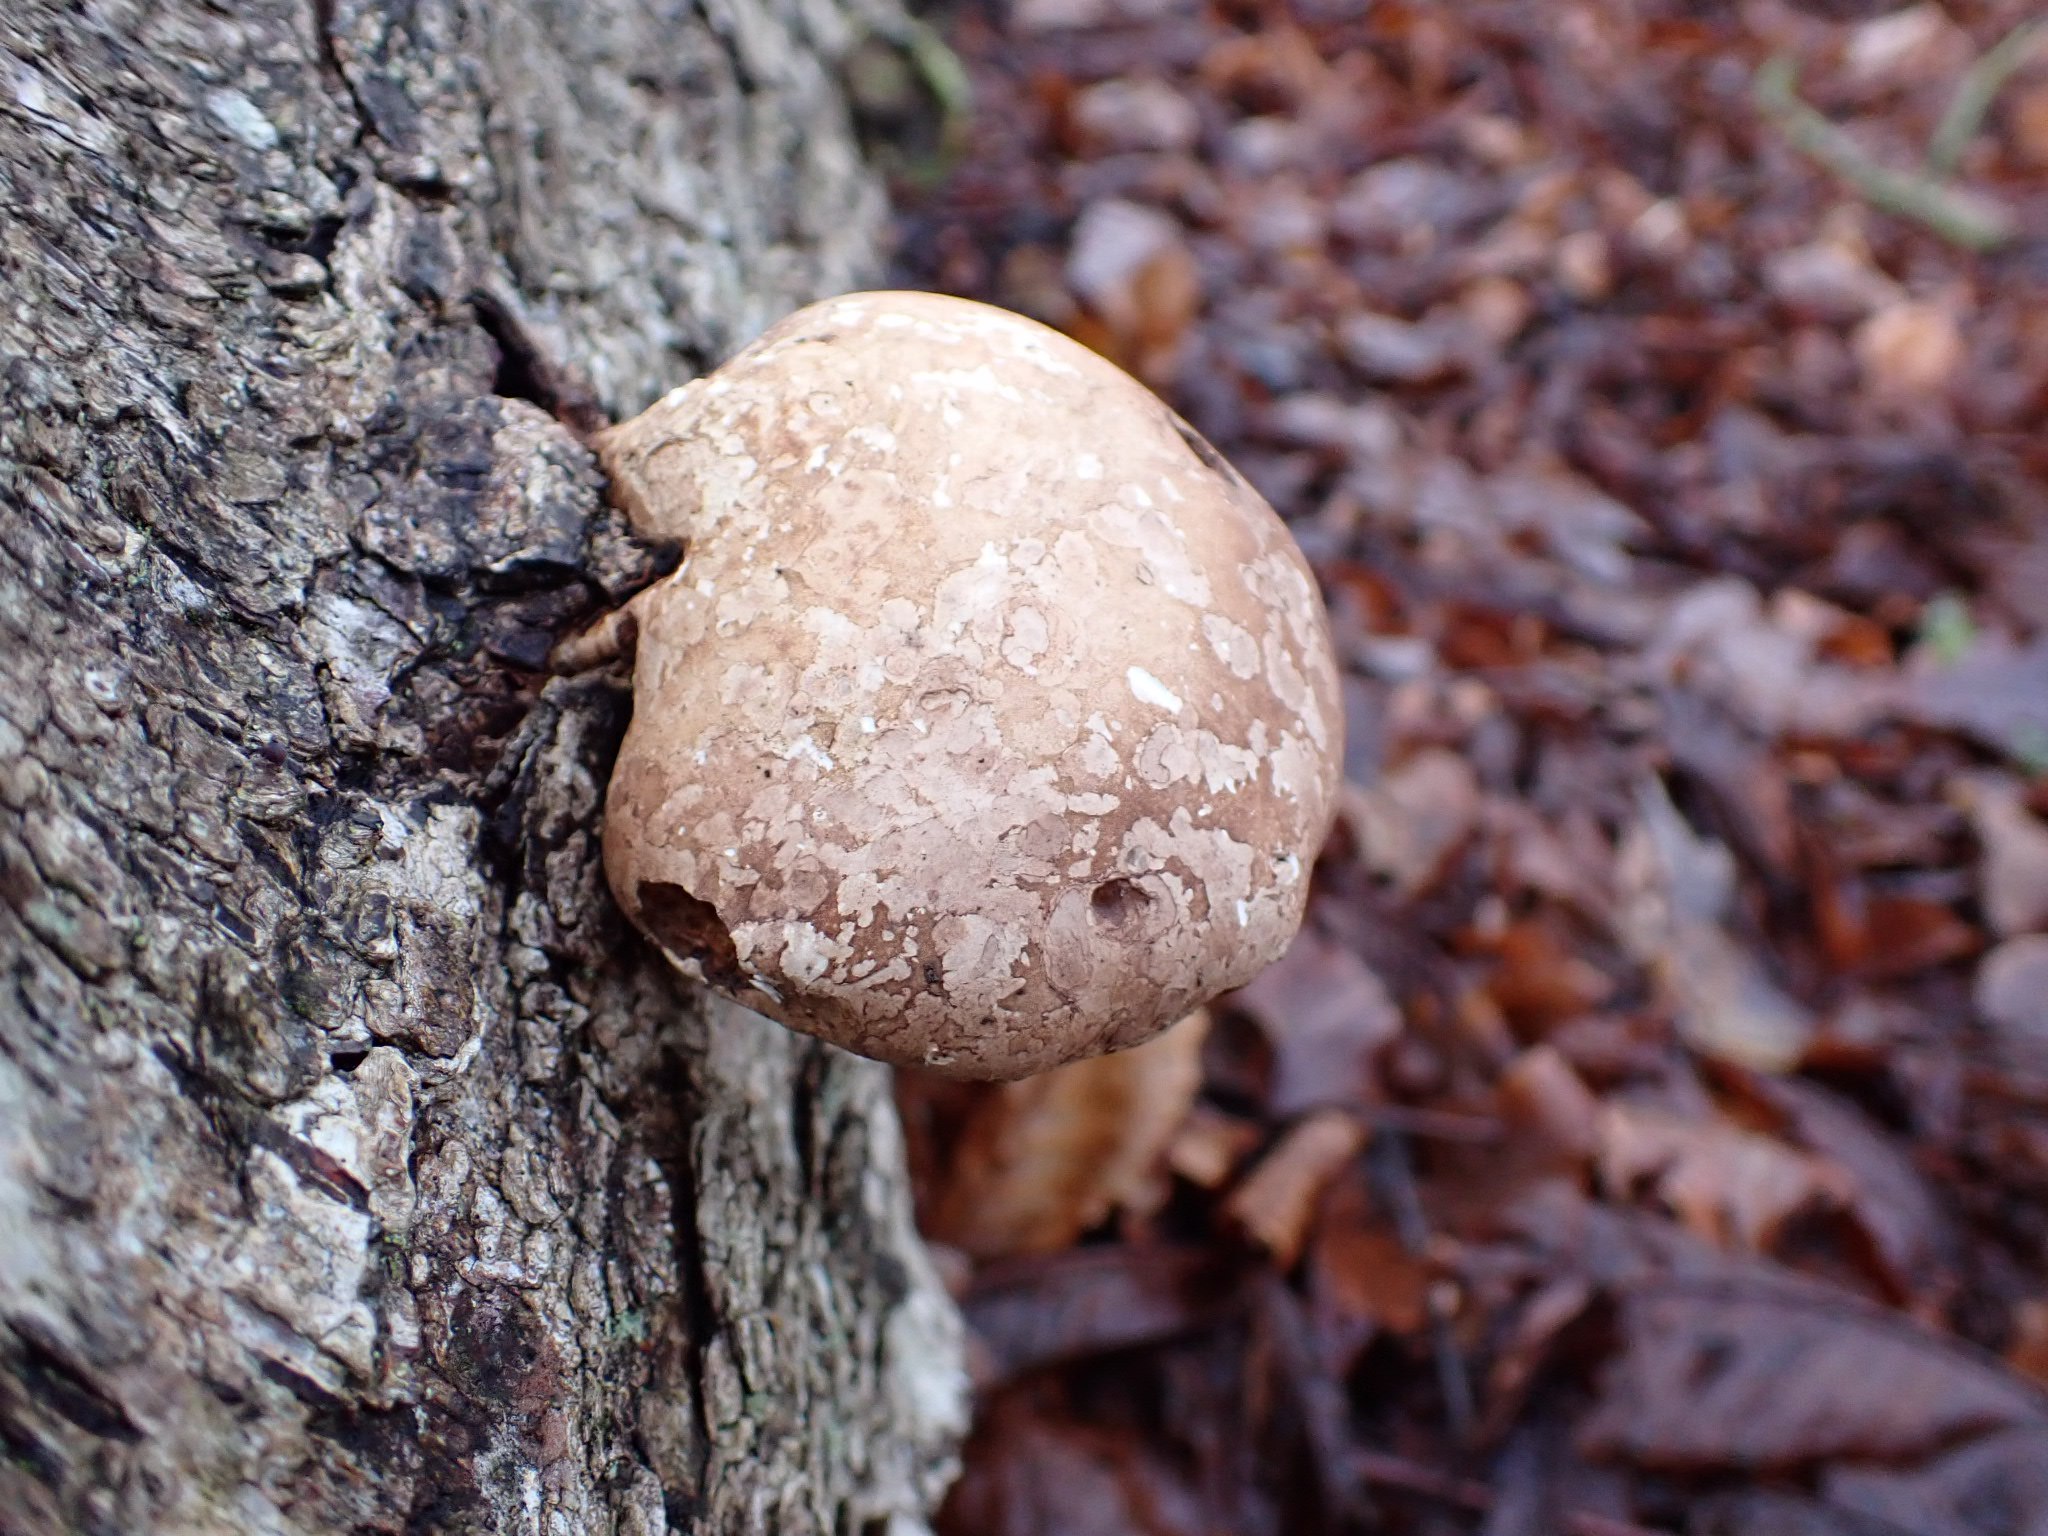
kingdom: Fungi
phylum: Basidiomycota
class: Agaricomycetes
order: Polyporales
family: Fomitopsidaceae
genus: Fomitopsis
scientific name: Fomitopsis betulina
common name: birkeporesvamp
